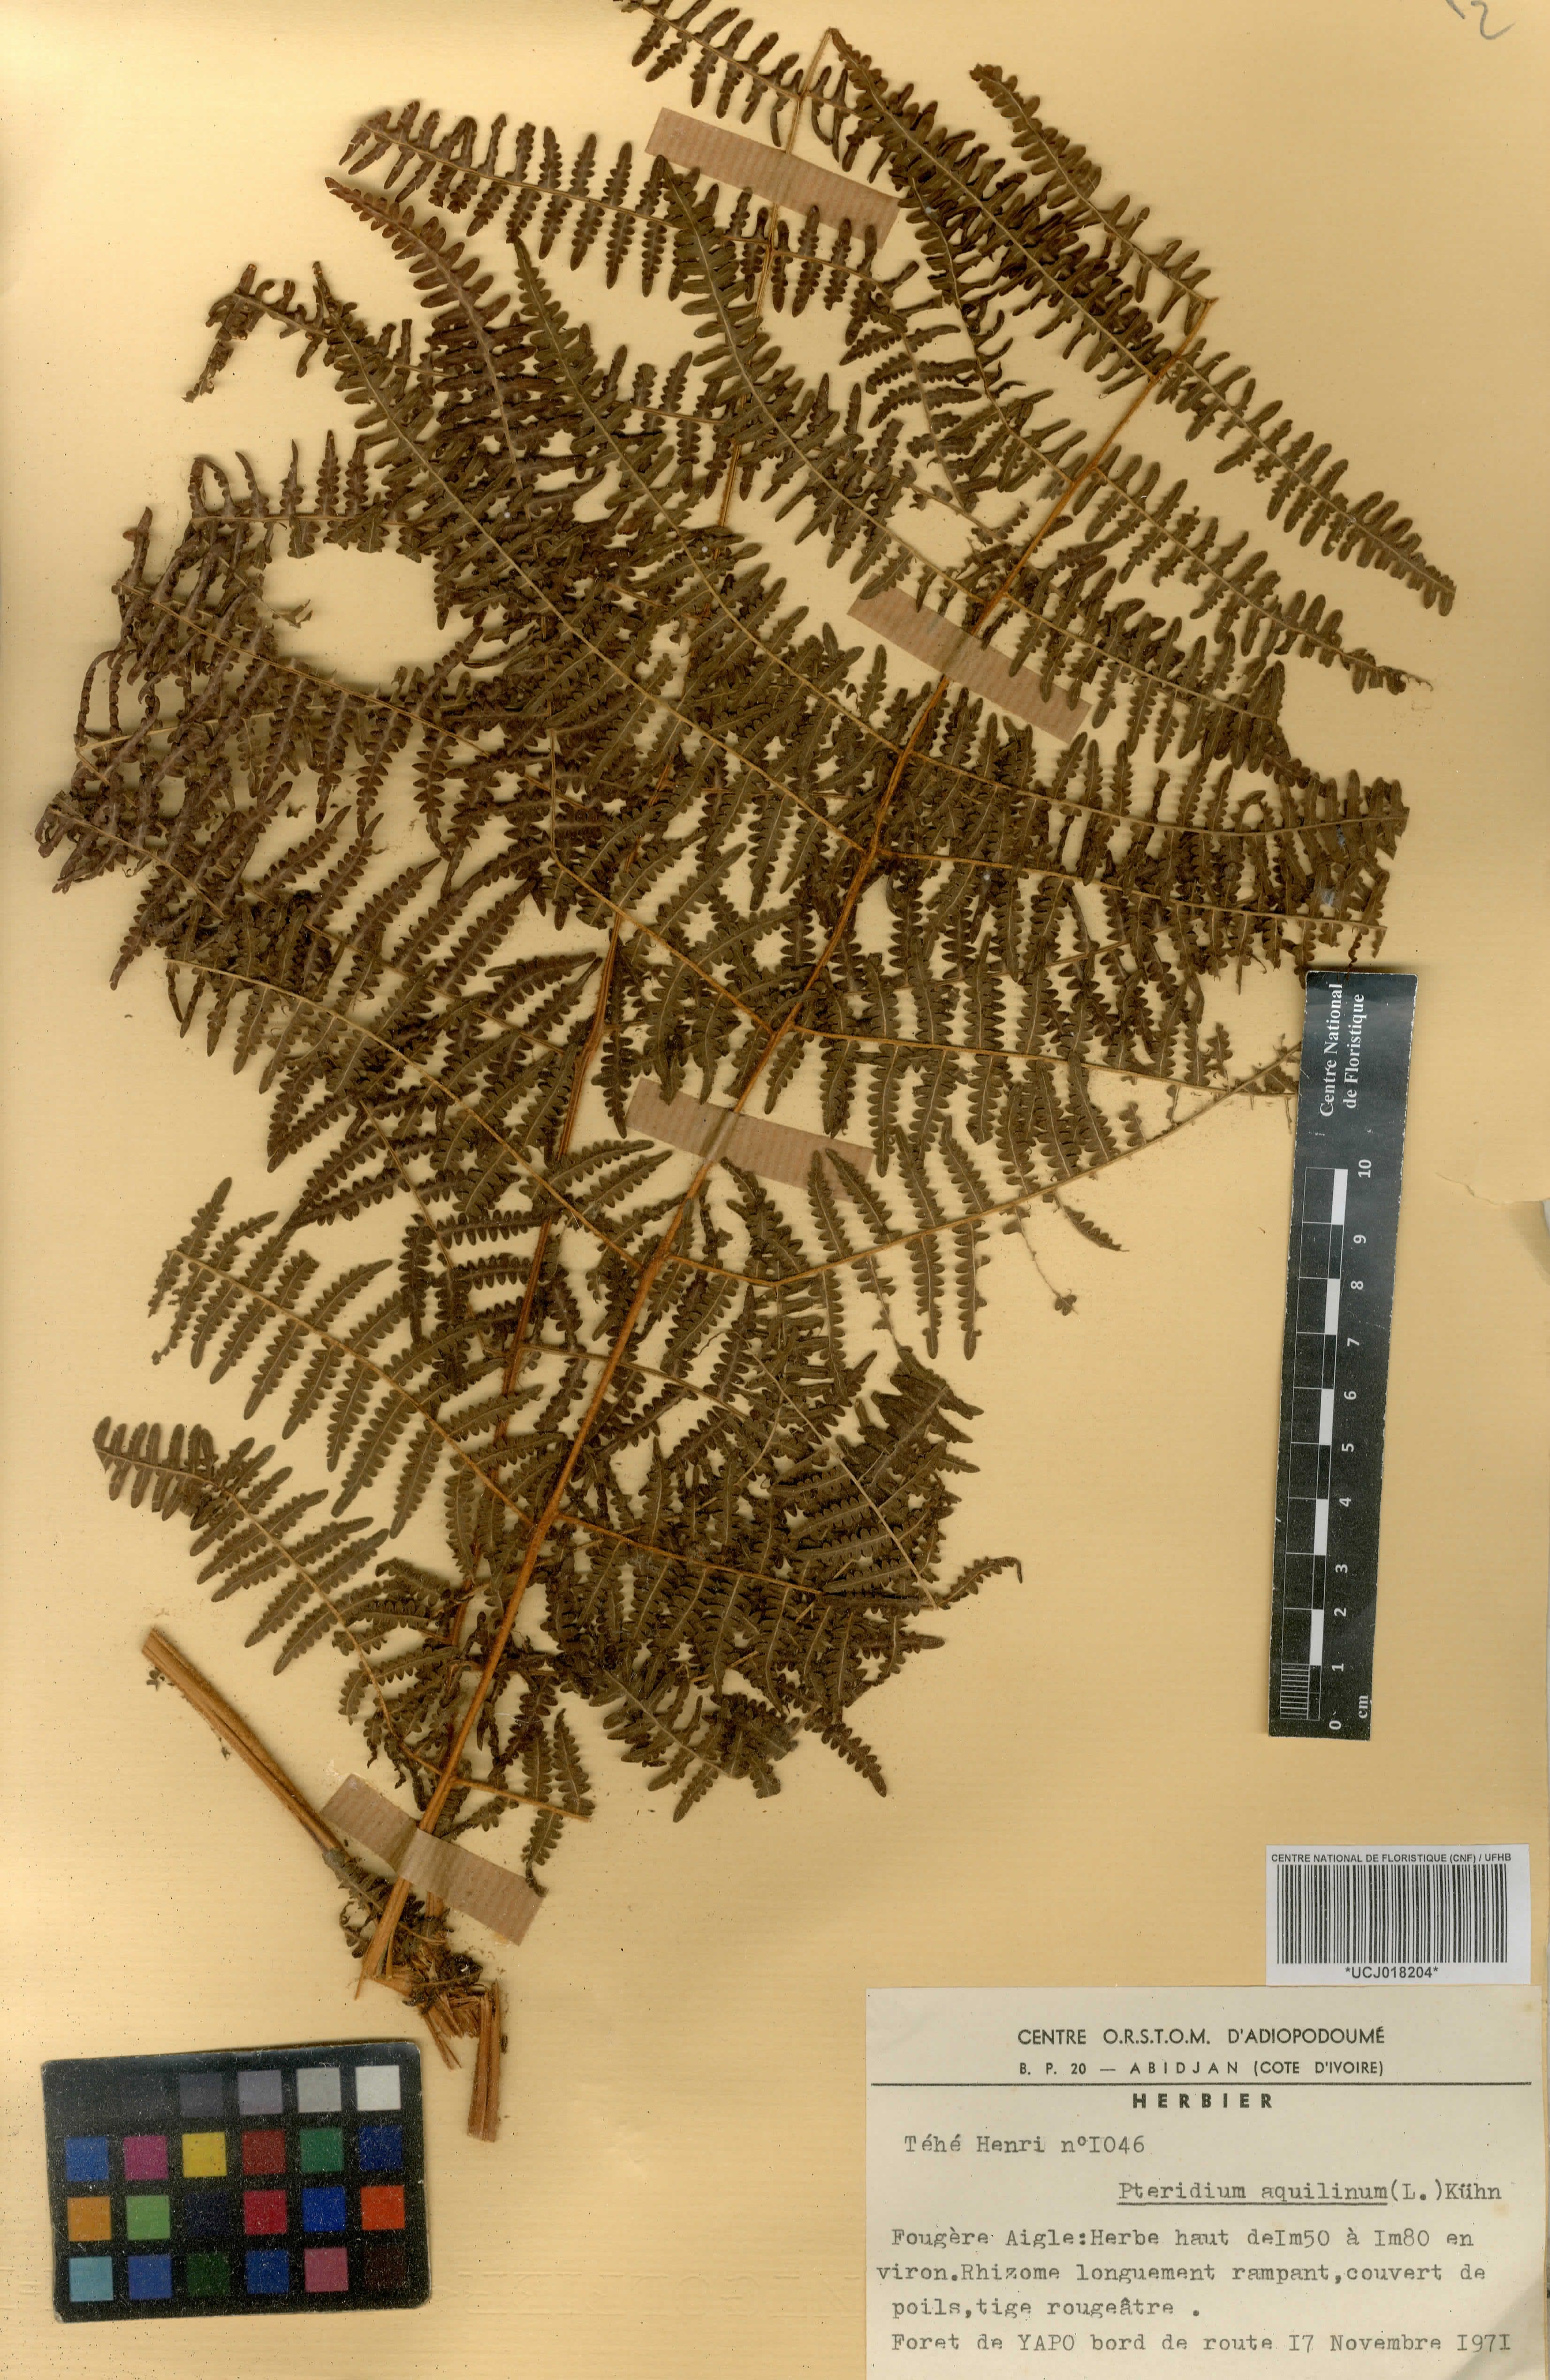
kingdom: Plantae
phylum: Tracheophyta
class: Polypodiopsida
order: Polypodiales
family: Dennstaedtiaceae
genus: Pteridium
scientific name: Pteridium aquilinum
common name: Bracken
